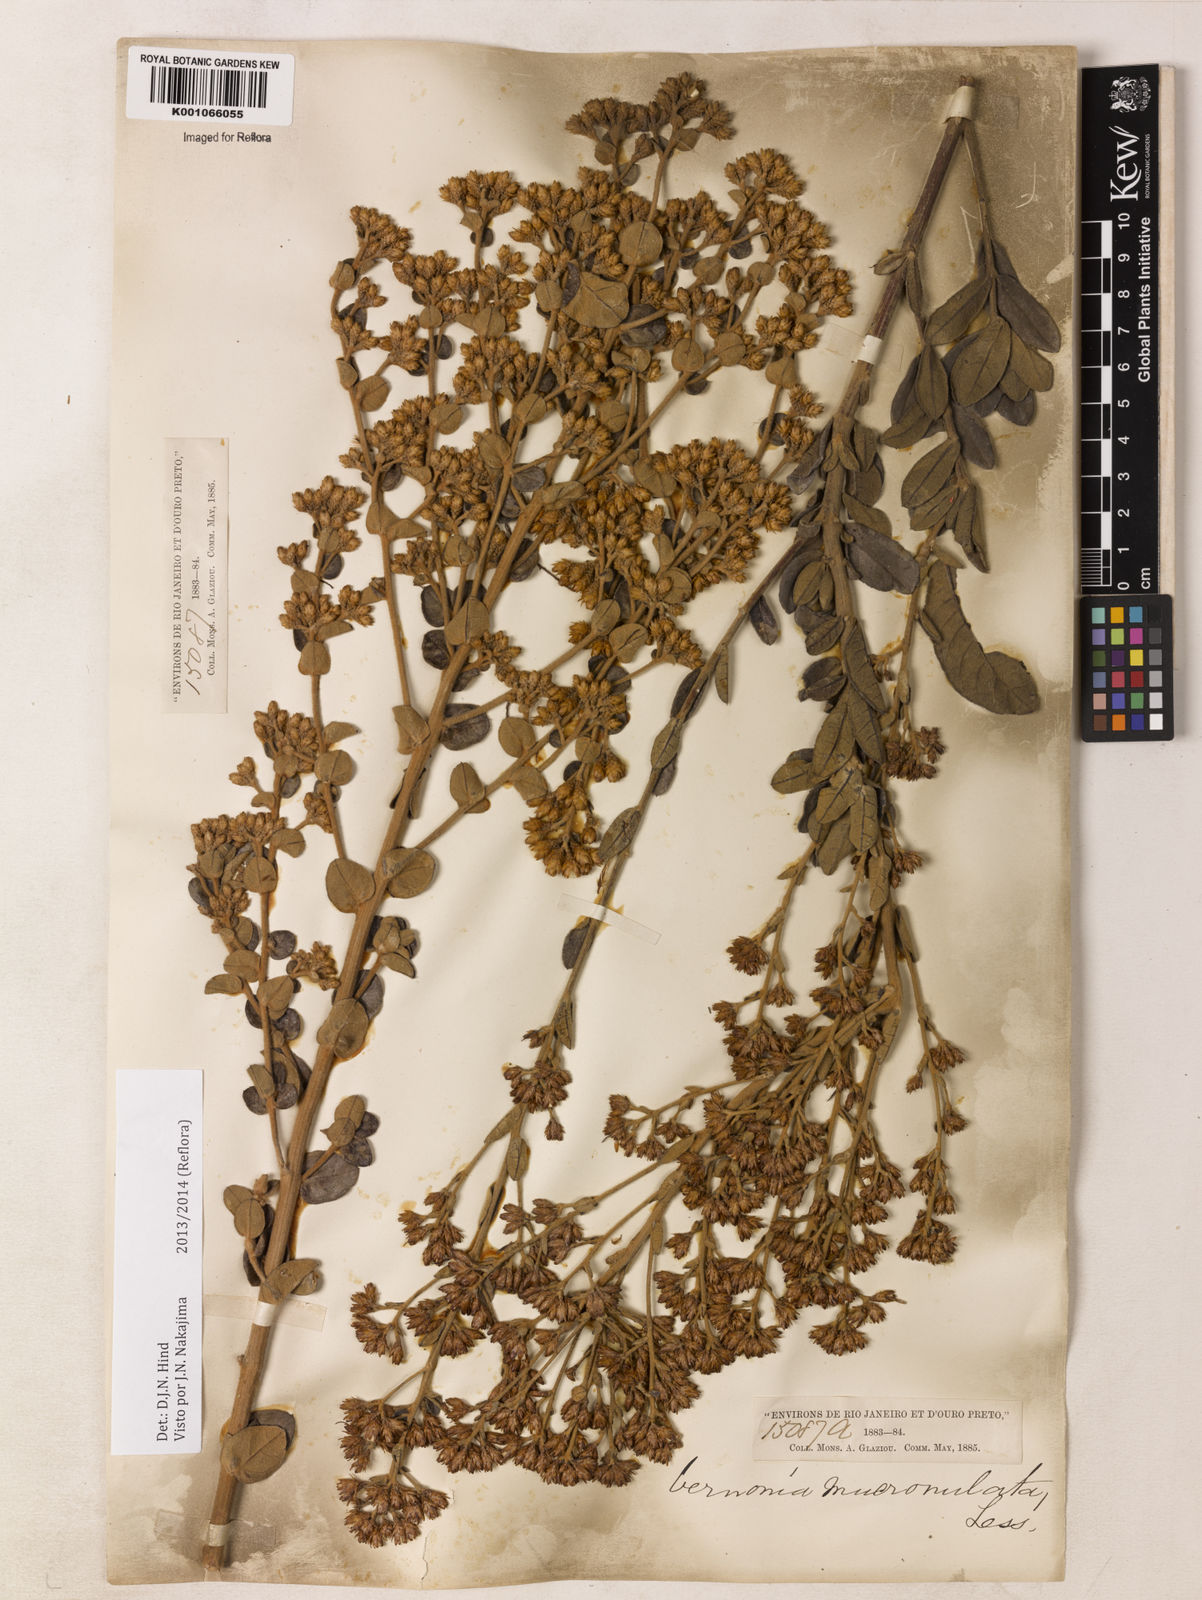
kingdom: Plantae
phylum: Tracheophyta
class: Magnoliopsida
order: Asterales
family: Asteraceae
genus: Vernonanthura
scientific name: Vernonanthura mucronulata
